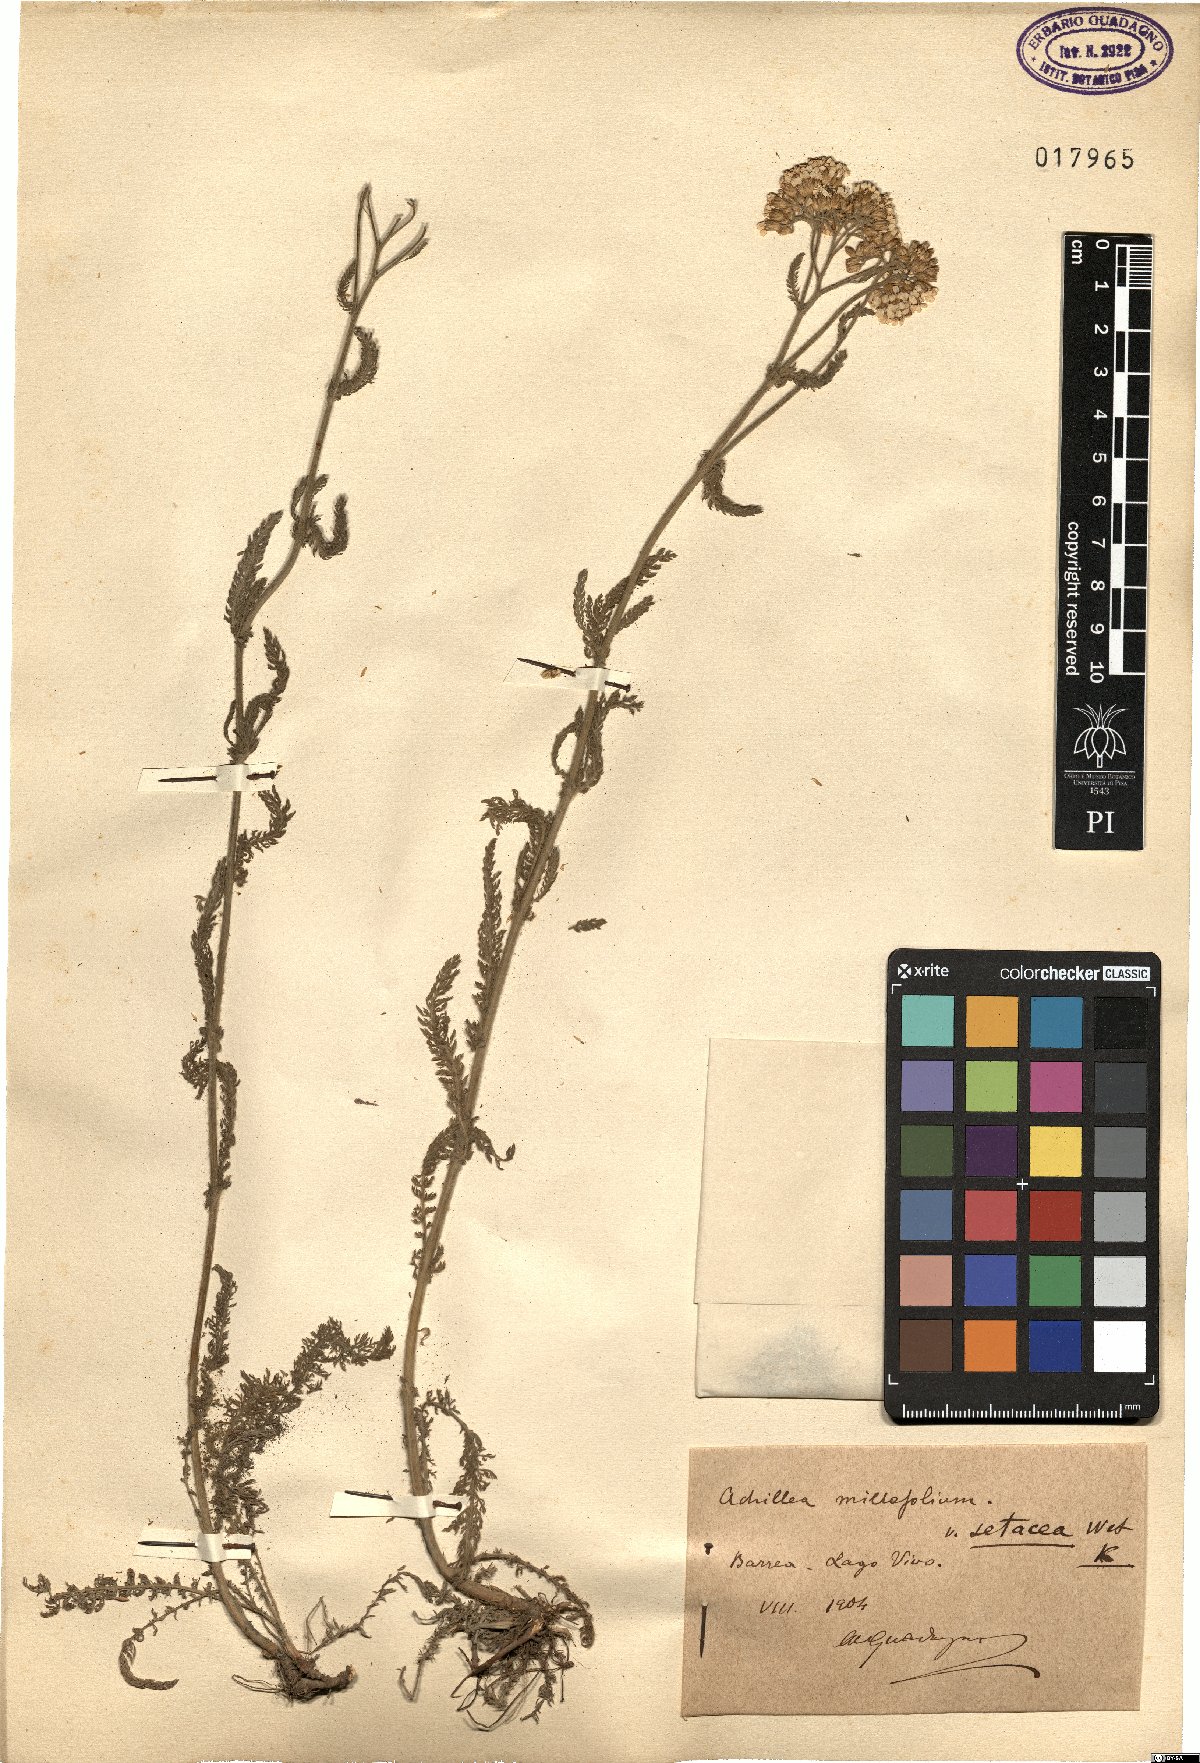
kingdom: Plantae
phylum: Tracheophyta
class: Magnoliopsida
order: Asterales
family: Asteraceae
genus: Achillea
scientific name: Achillea setacea
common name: Bristly yarrow
